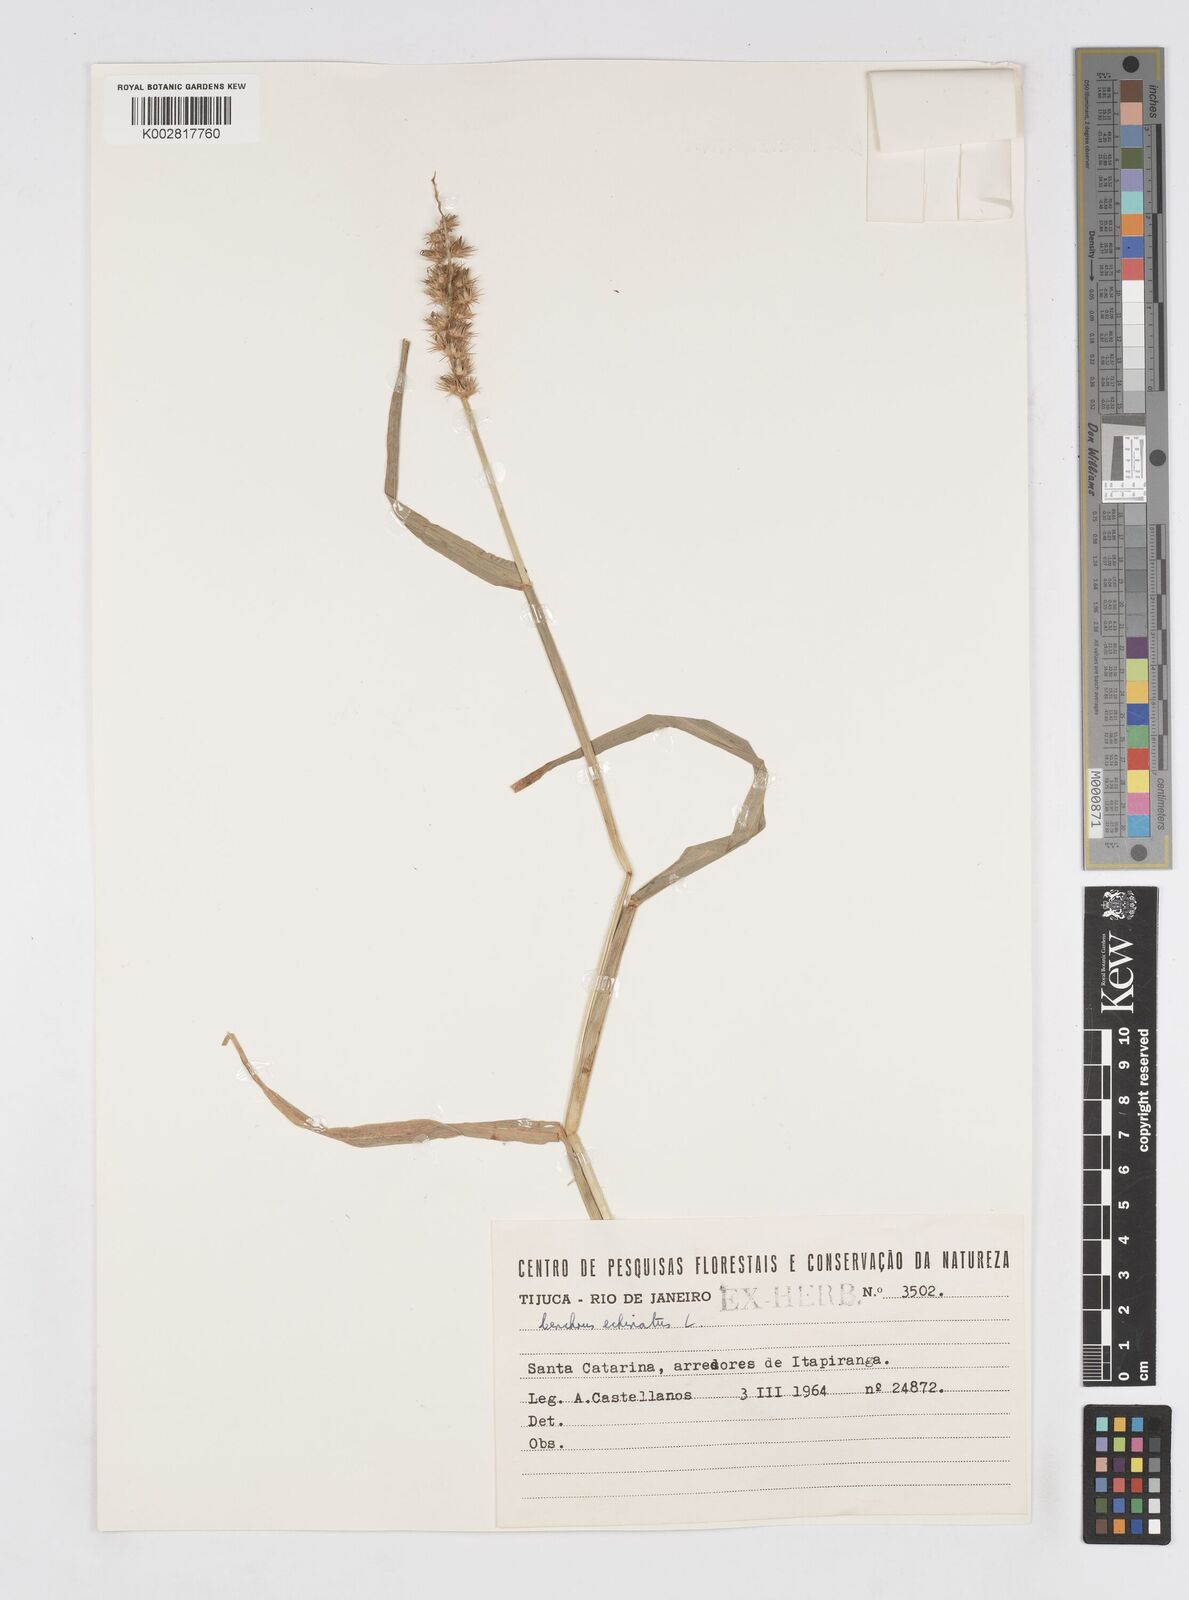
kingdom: Plantae
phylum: Tracheophyta
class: Liliopsida
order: Poales
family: Poaceae
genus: Cenchrus
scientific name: Cenchrus
